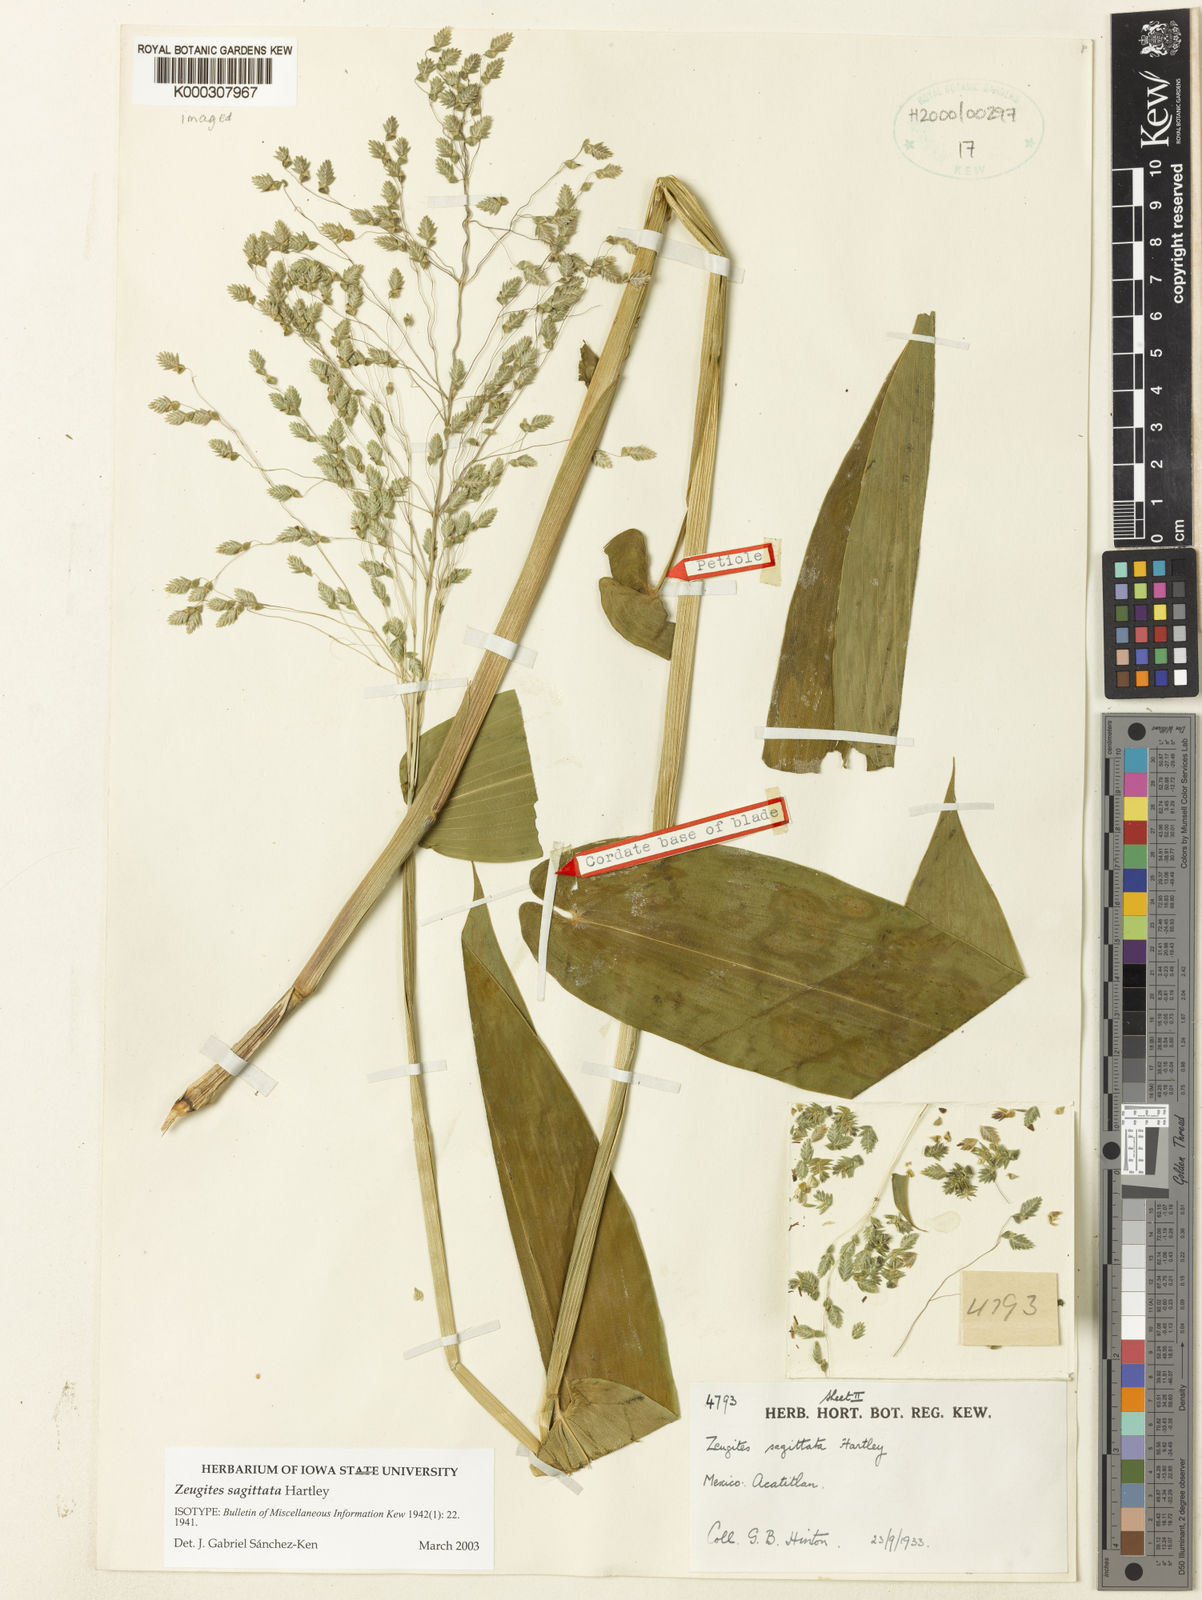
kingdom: Plantae
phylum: Tracheophyta
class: Liliopsida
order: Poales
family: Poaceae
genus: Zeugites
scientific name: Zeugites sagittatus
